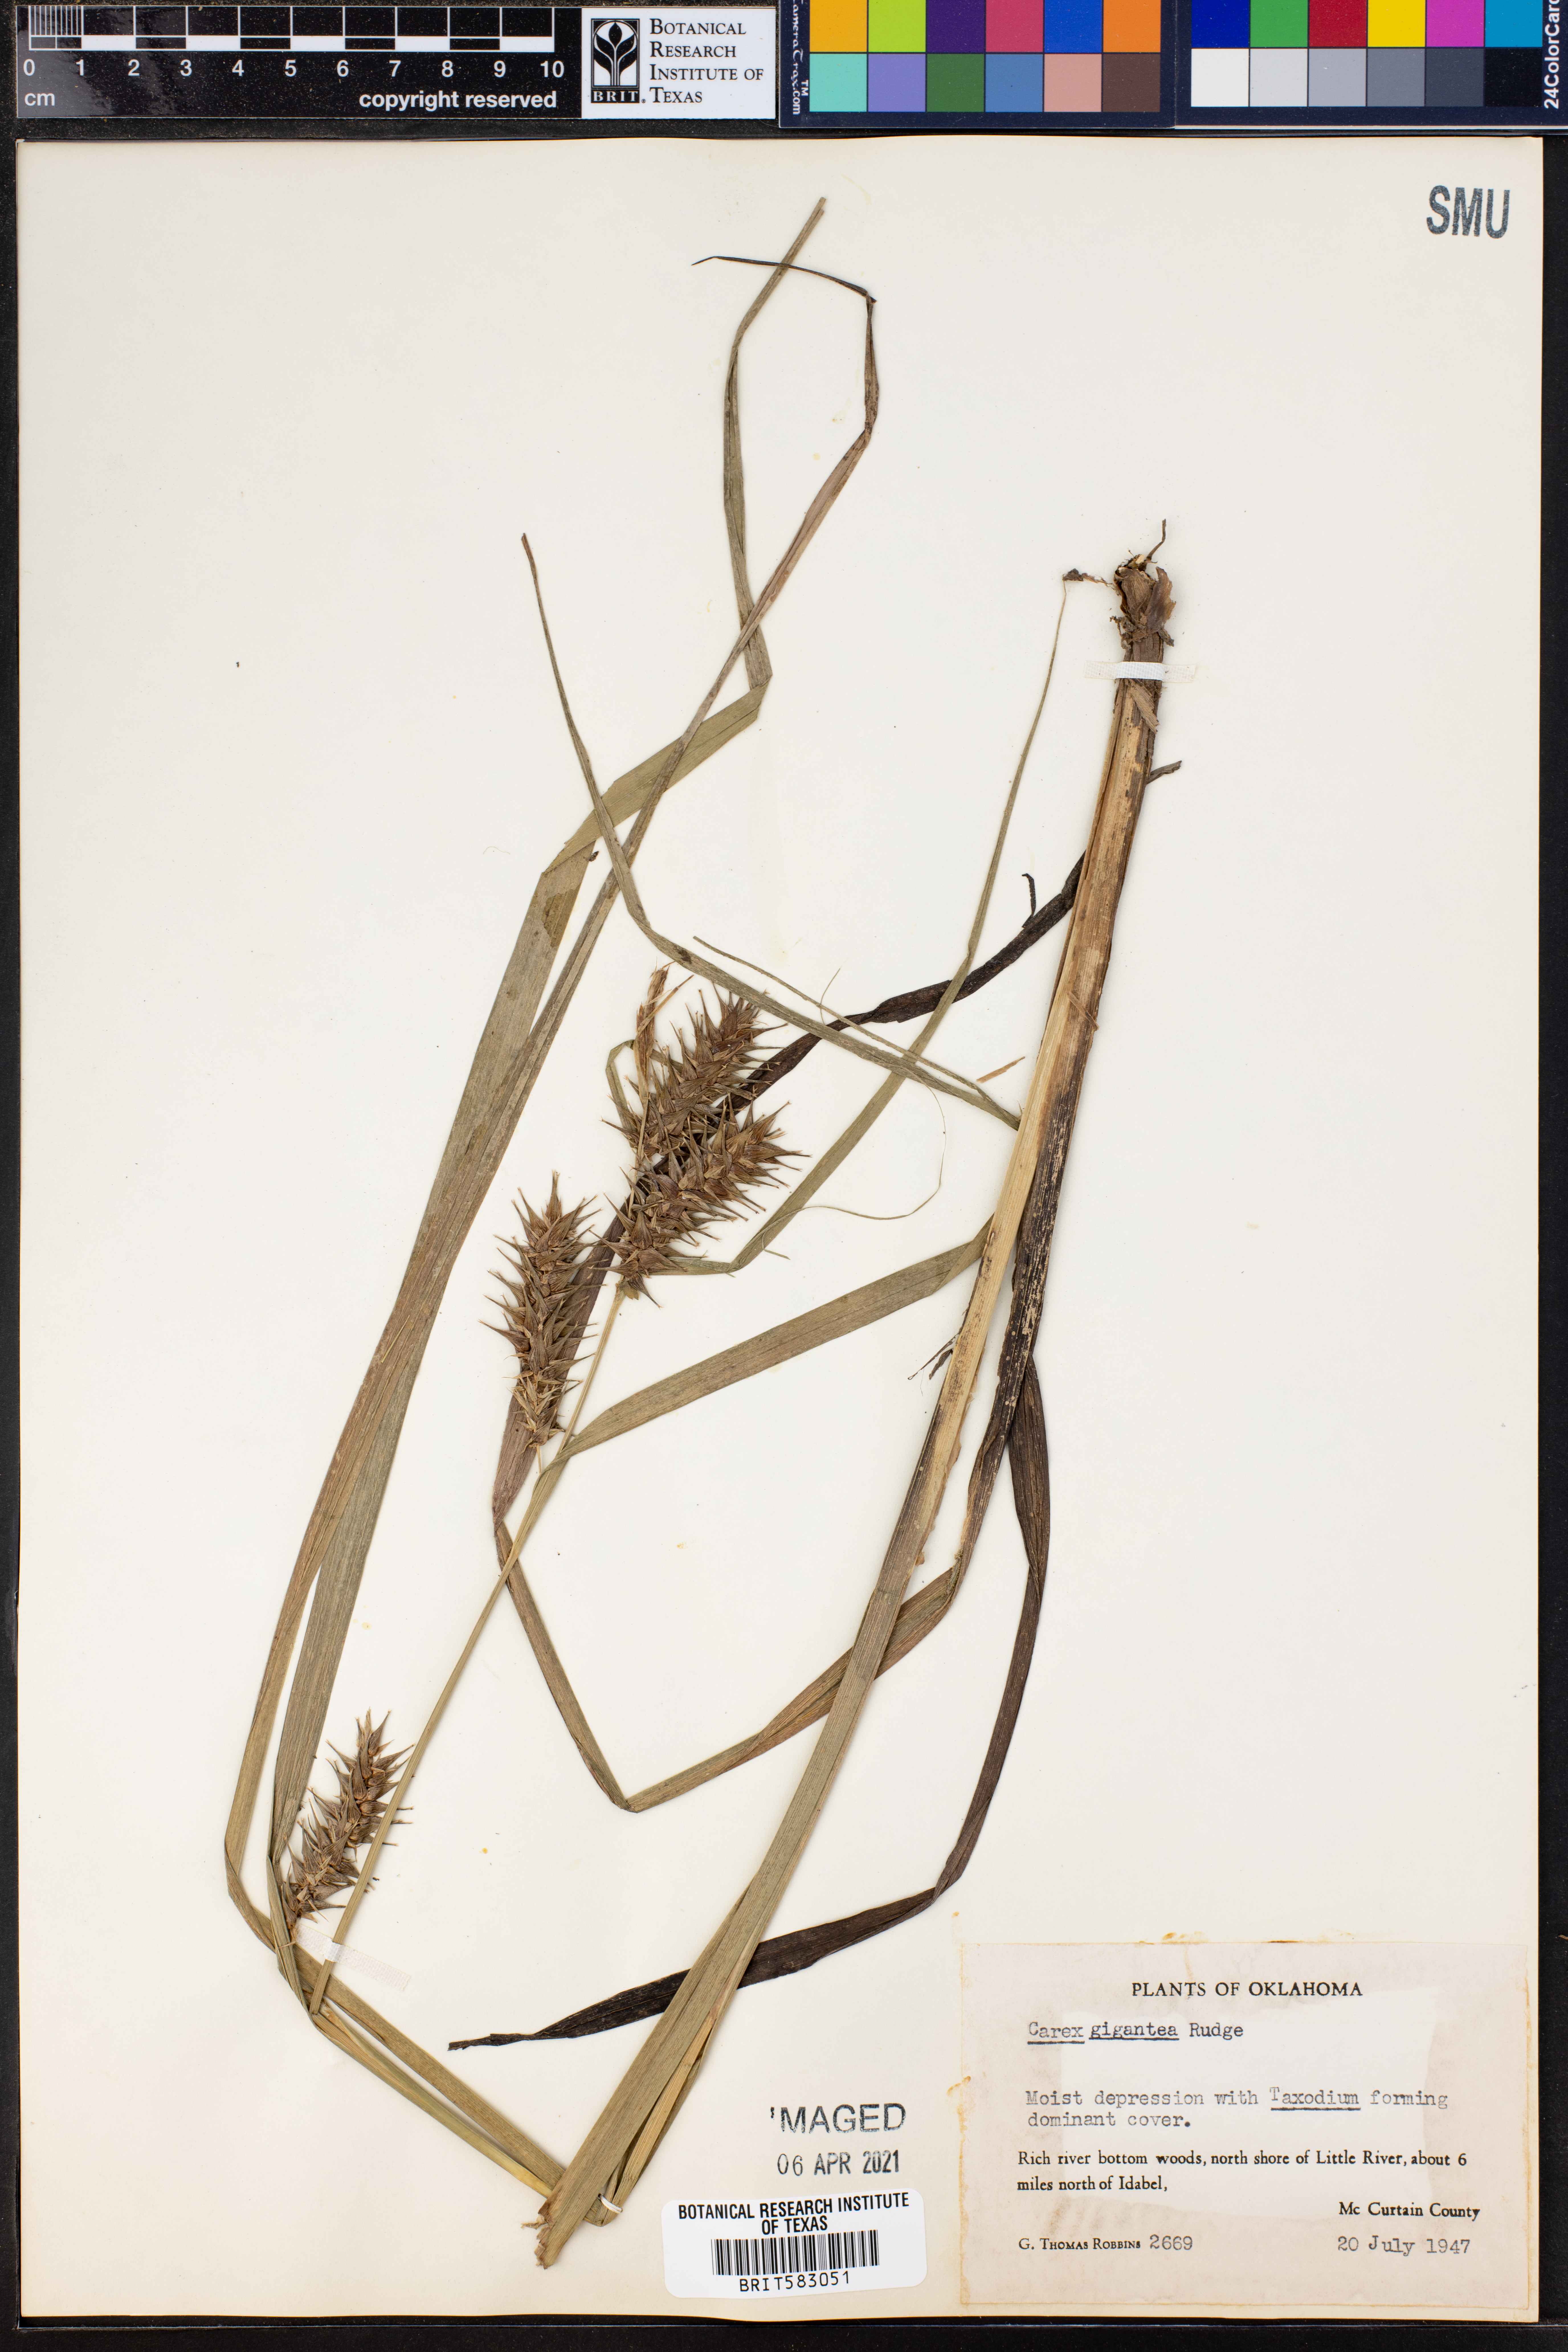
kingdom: Plantae
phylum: Tracheophyta
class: Liliopsida
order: Poales
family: Cyperaceae
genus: Carex
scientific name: Carex gigantea
